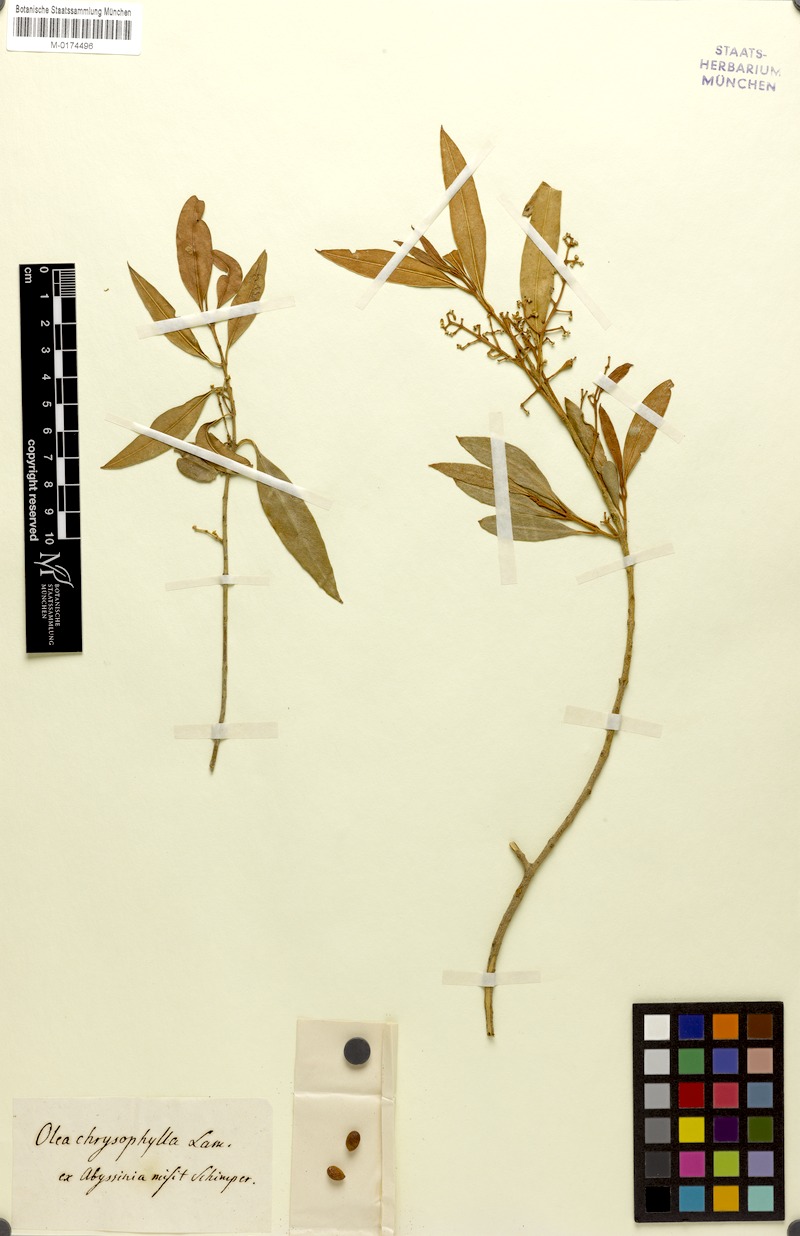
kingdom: Plantae
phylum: Tracheophyta
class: Magnoliopsida
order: Lamiales
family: Oleaceae
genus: Olea
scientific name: Olea europaea
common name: Olive
